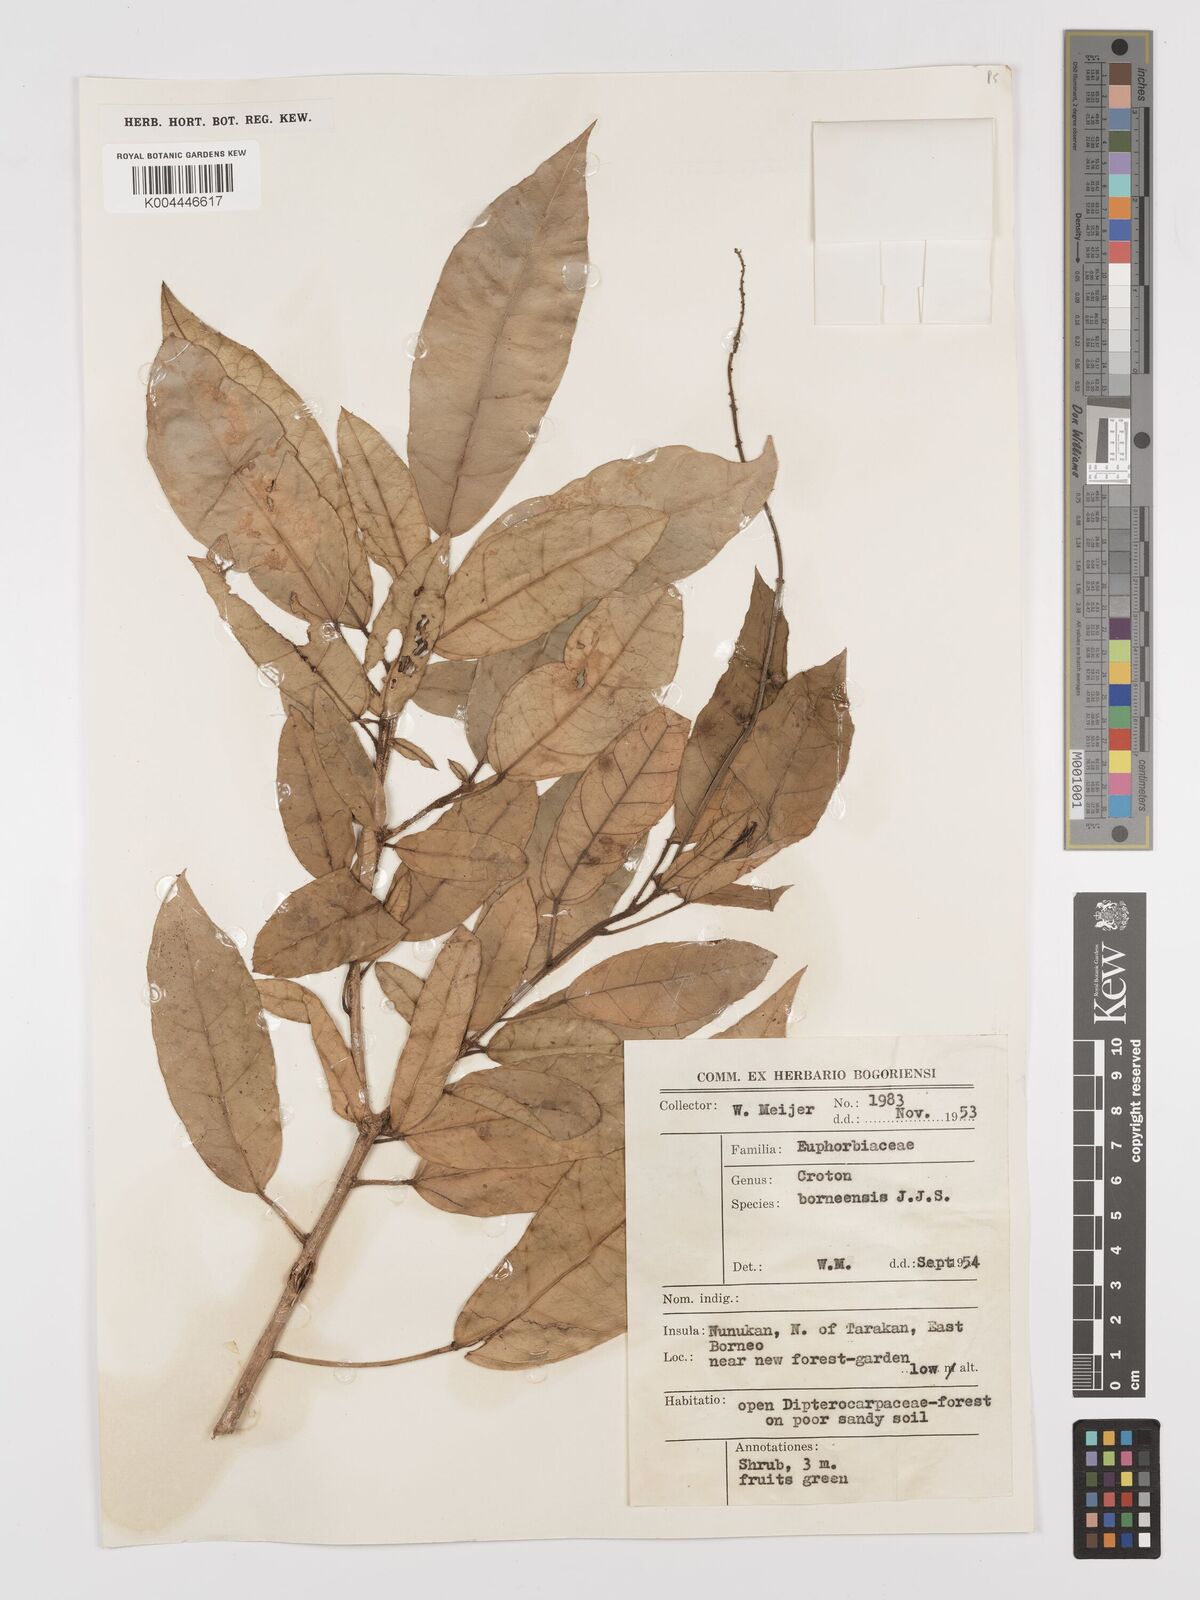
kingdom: Plantae
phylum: Tracheophyta
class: Magnoliopsida
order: Malpighiales
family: Euphorbiaceae
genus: Croton
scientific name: Croton borneensis
